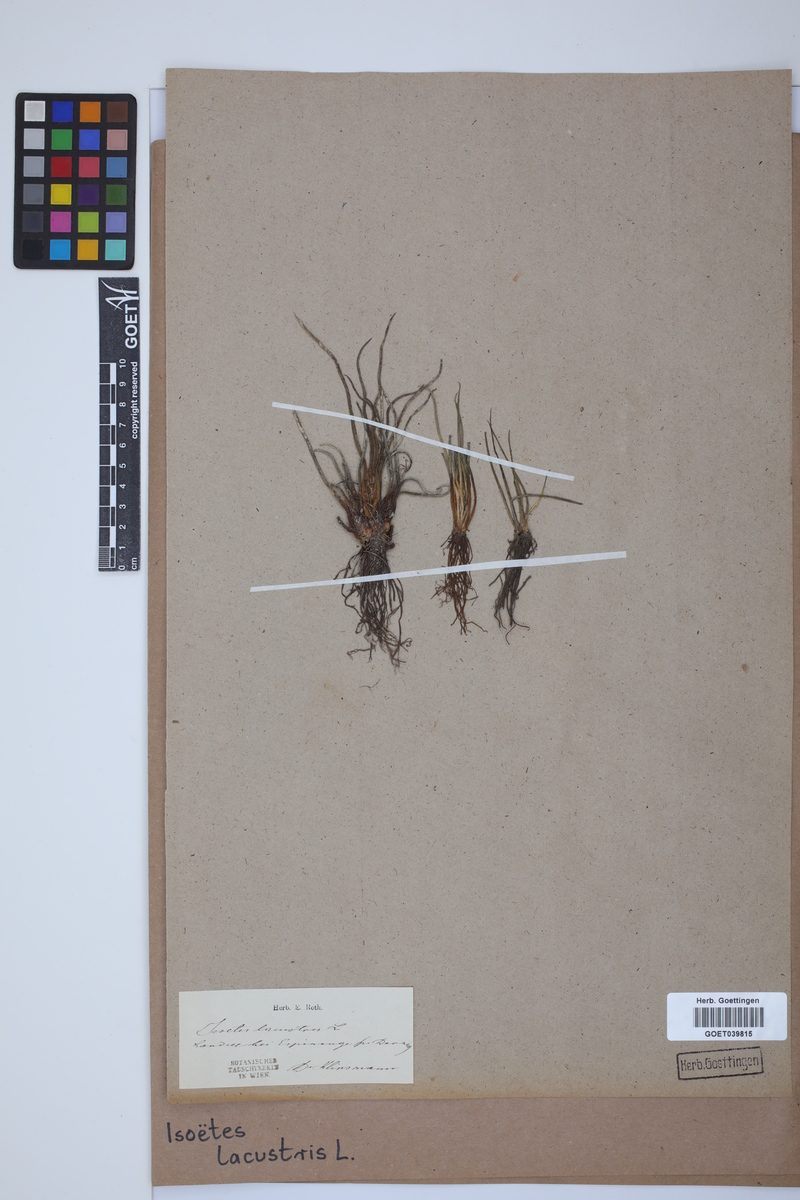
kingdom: Plantae
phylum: Tracheophyta
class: Lycopodiopsida
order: Isoetales
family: Isoetaceae
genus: Isoetes
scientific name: Isoetes lacustris
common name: Common quillwort
